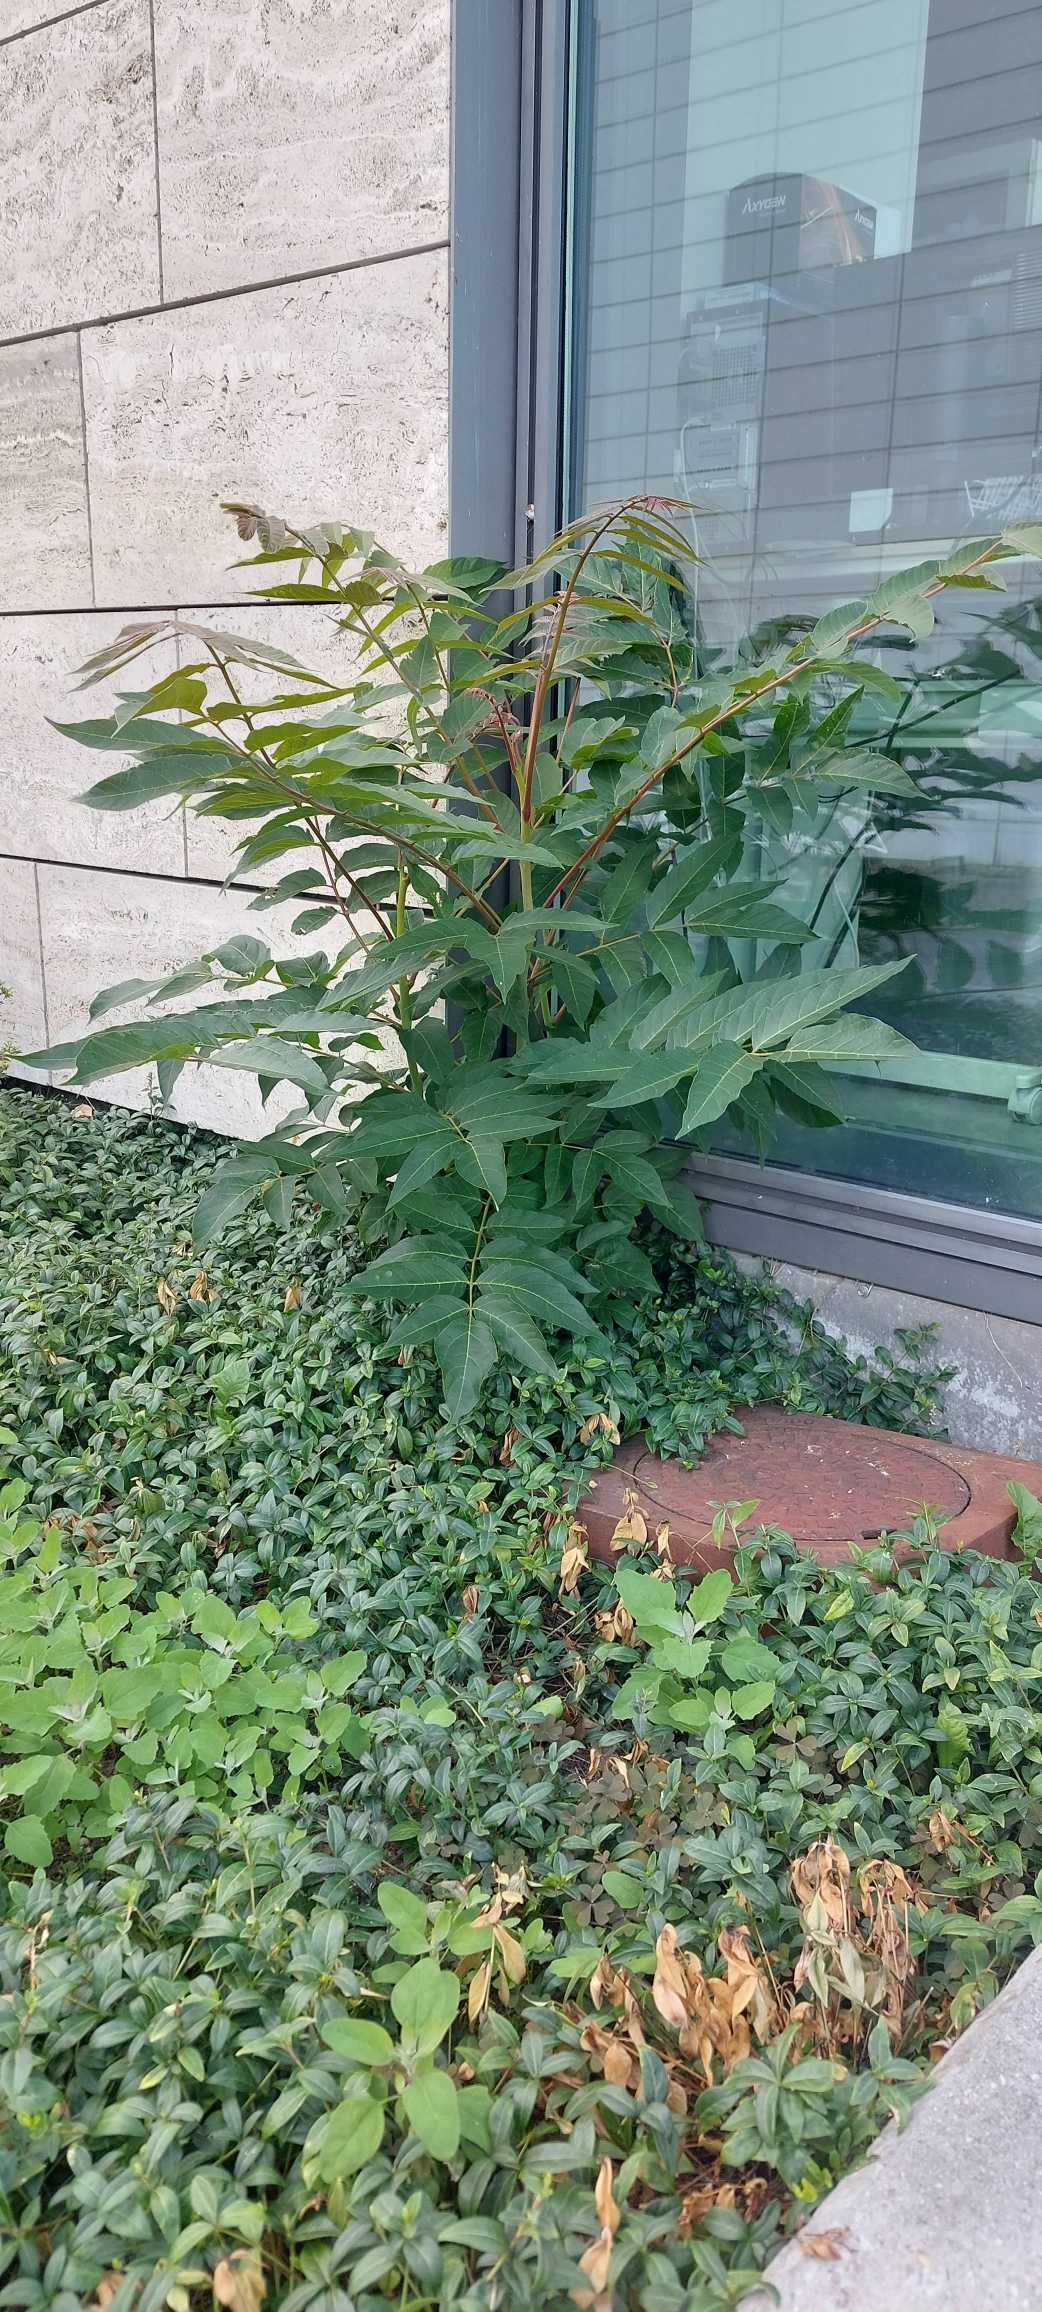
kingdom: Plantae
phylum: Tracheophyta
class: Magnoliopsida
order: Sapindales
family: Simaroubaceae
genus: Ailanthus
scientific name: Ailanthus altissima
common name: Skyrækker
